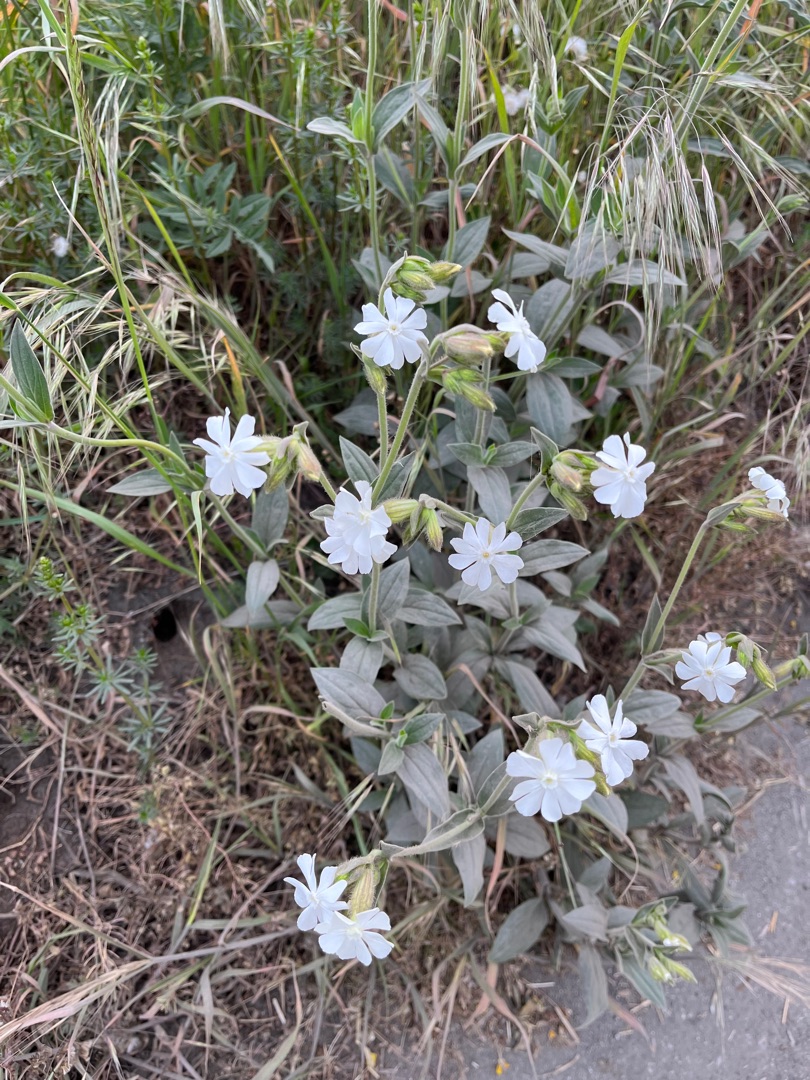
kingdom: Plantae
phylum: Tracheophyta
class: Magnoliopsida
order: Caryophyllales
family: Caryophyllaceae
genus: Silene
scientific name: Silene latifolia
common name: Aftenpragtstjerne
